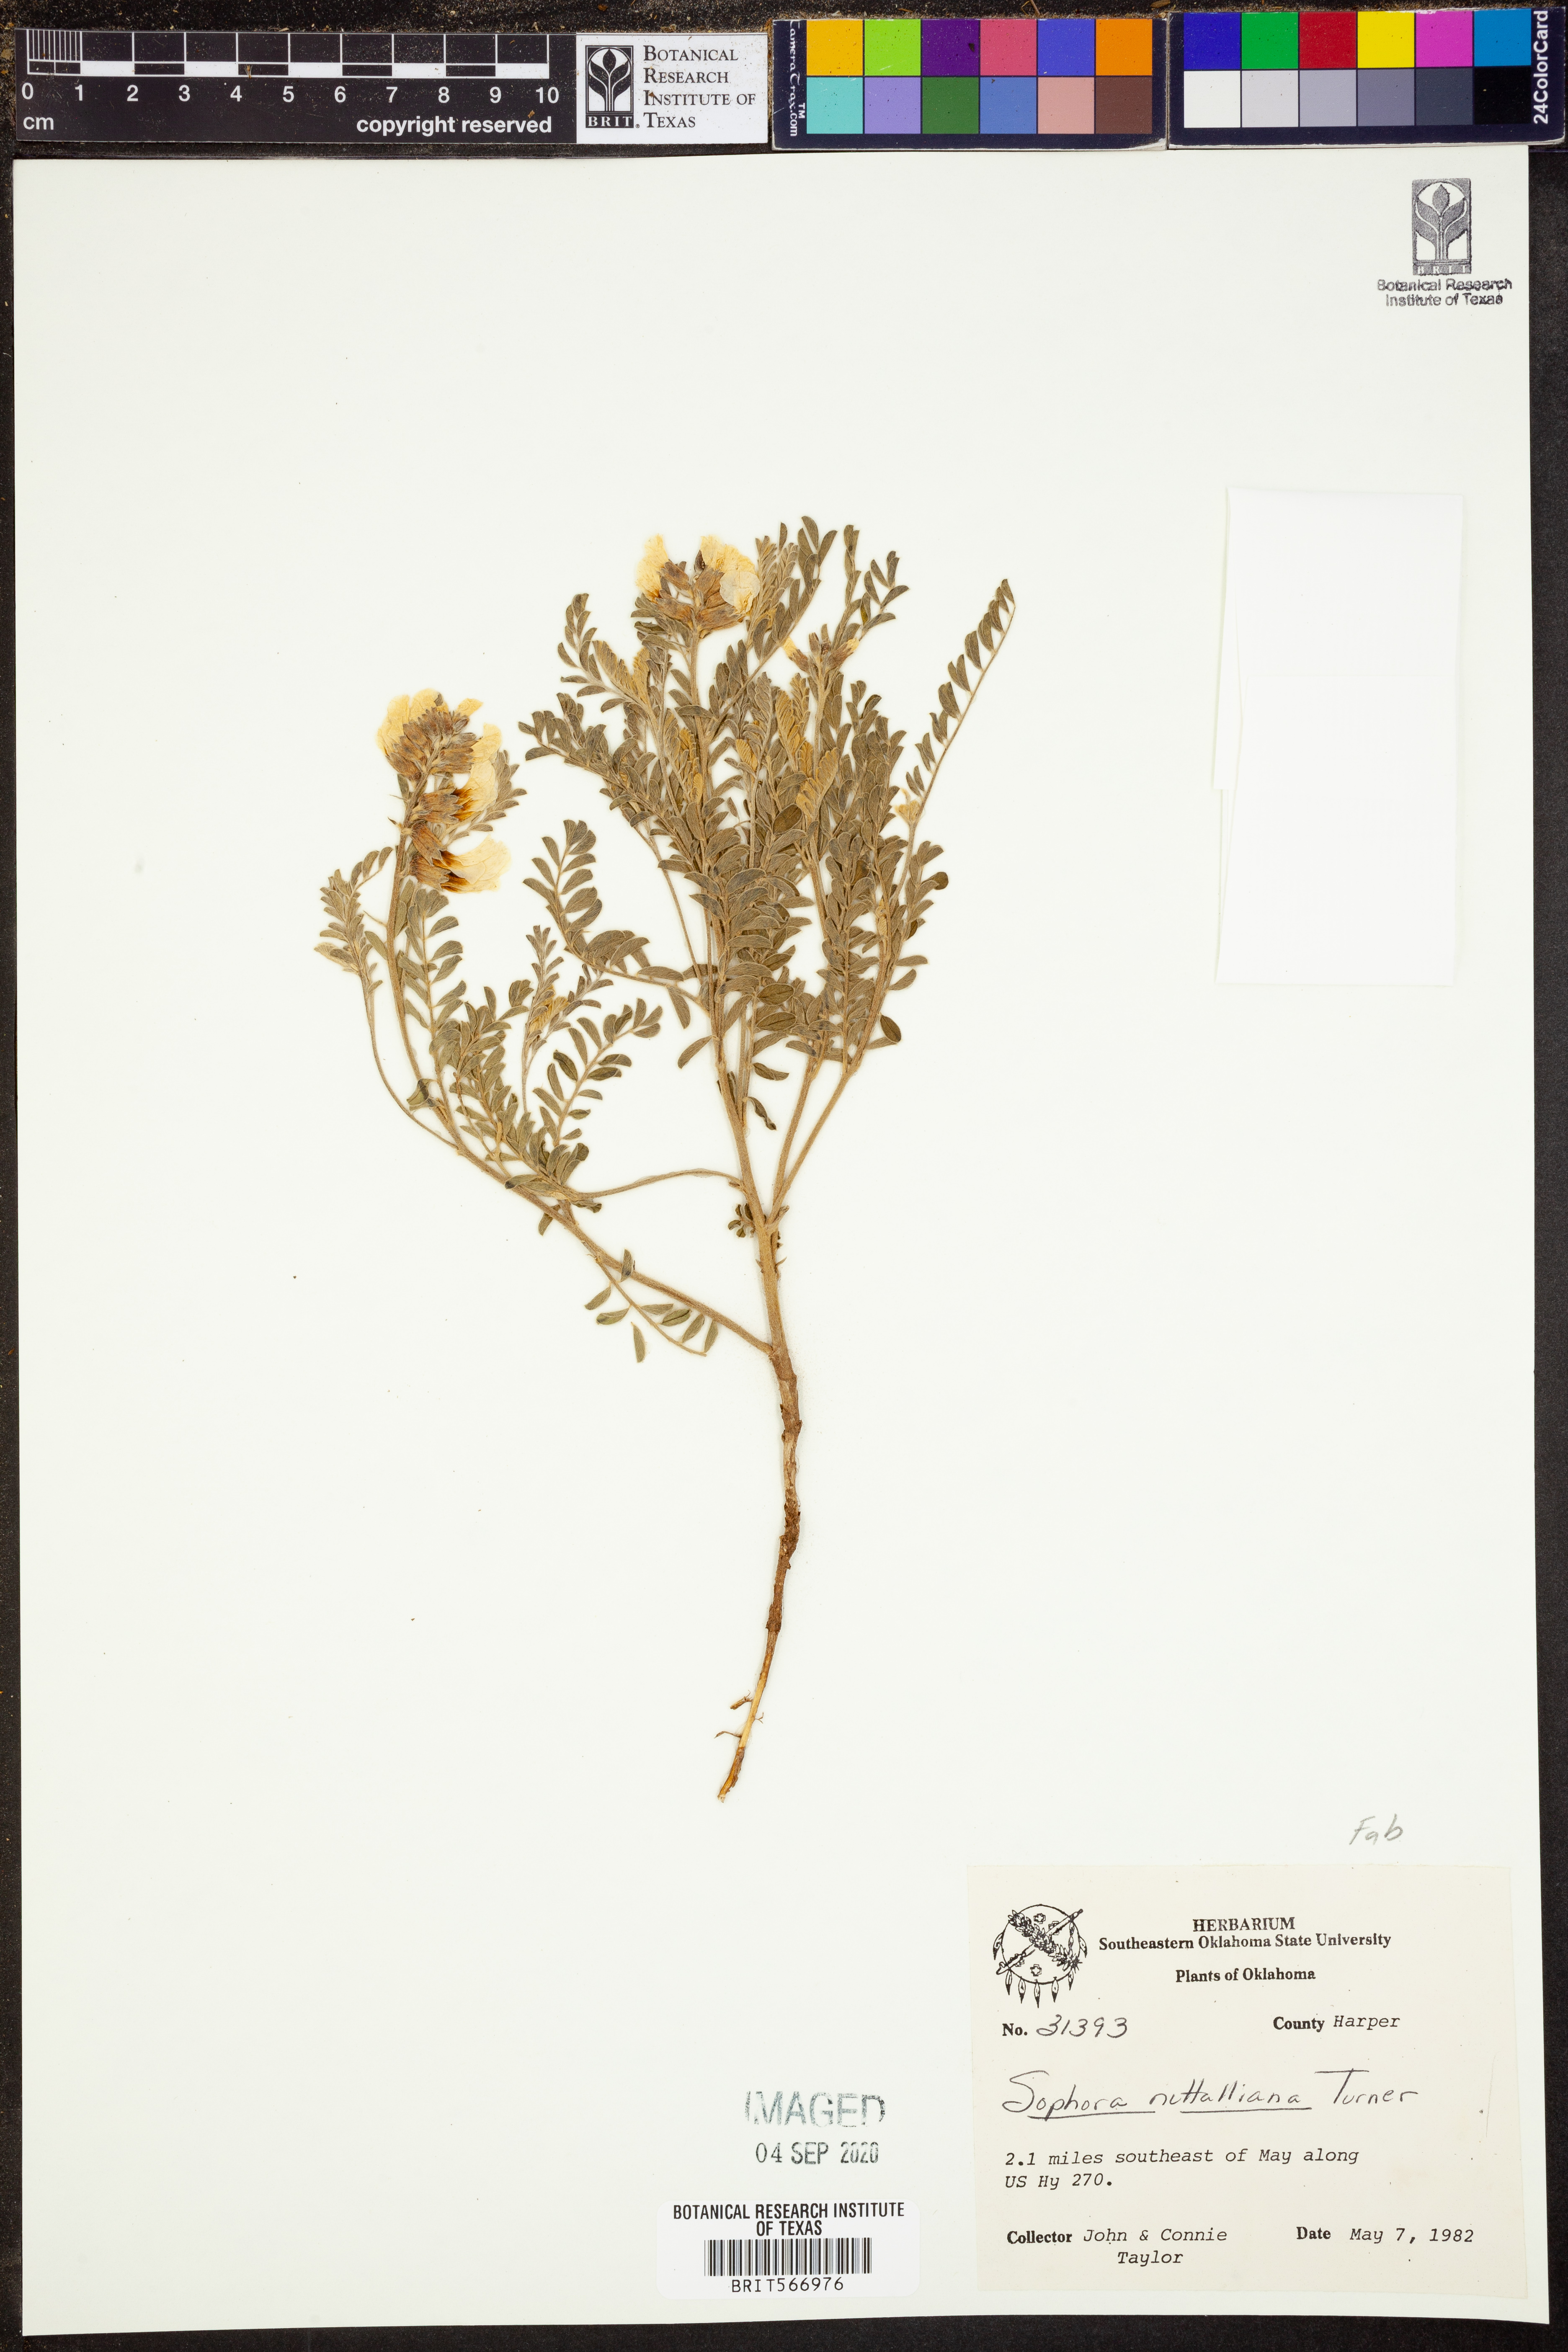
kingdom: Plantae
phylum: Tracheophyta
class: Magnoliopsida
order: Fabales
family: Fabaceae
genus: Sophora
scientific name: Sophora nuttalliana
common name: Silky sophora
